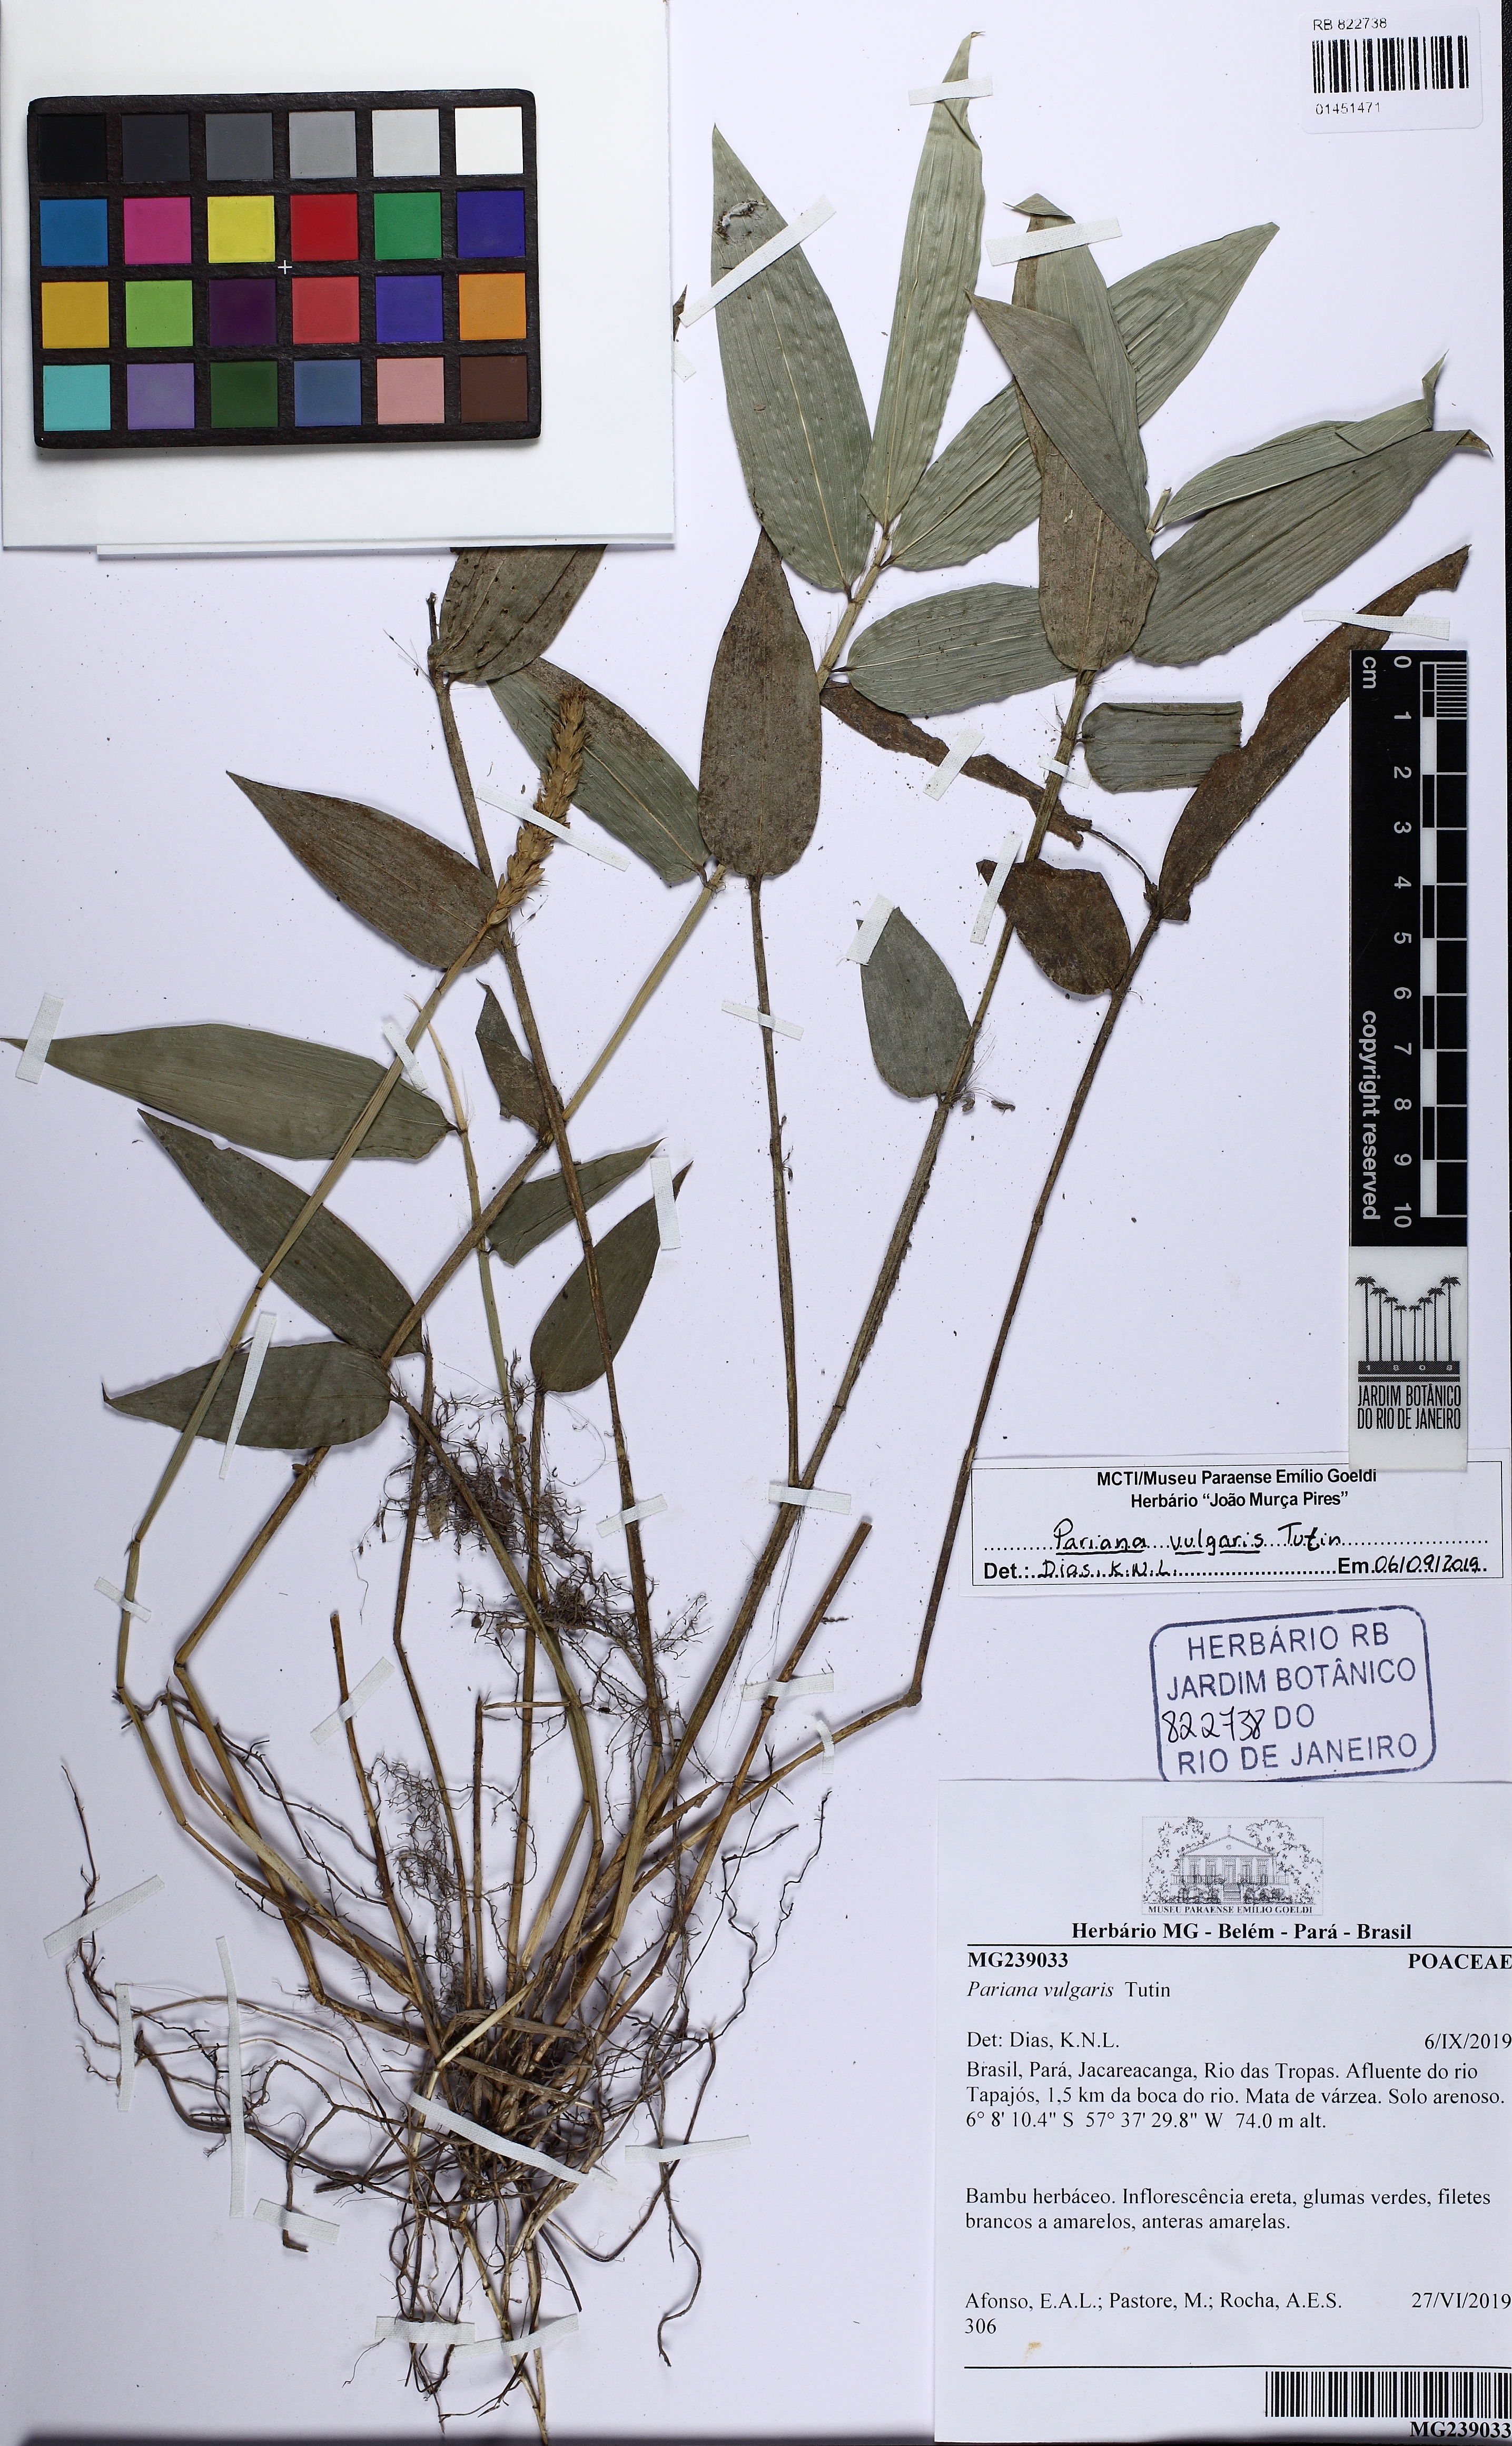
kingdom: Plantae
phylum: Tracheophyta
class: Liliopsida
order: Poales
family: Poaceae
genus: Pariana
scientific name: Pariana vulgaris
